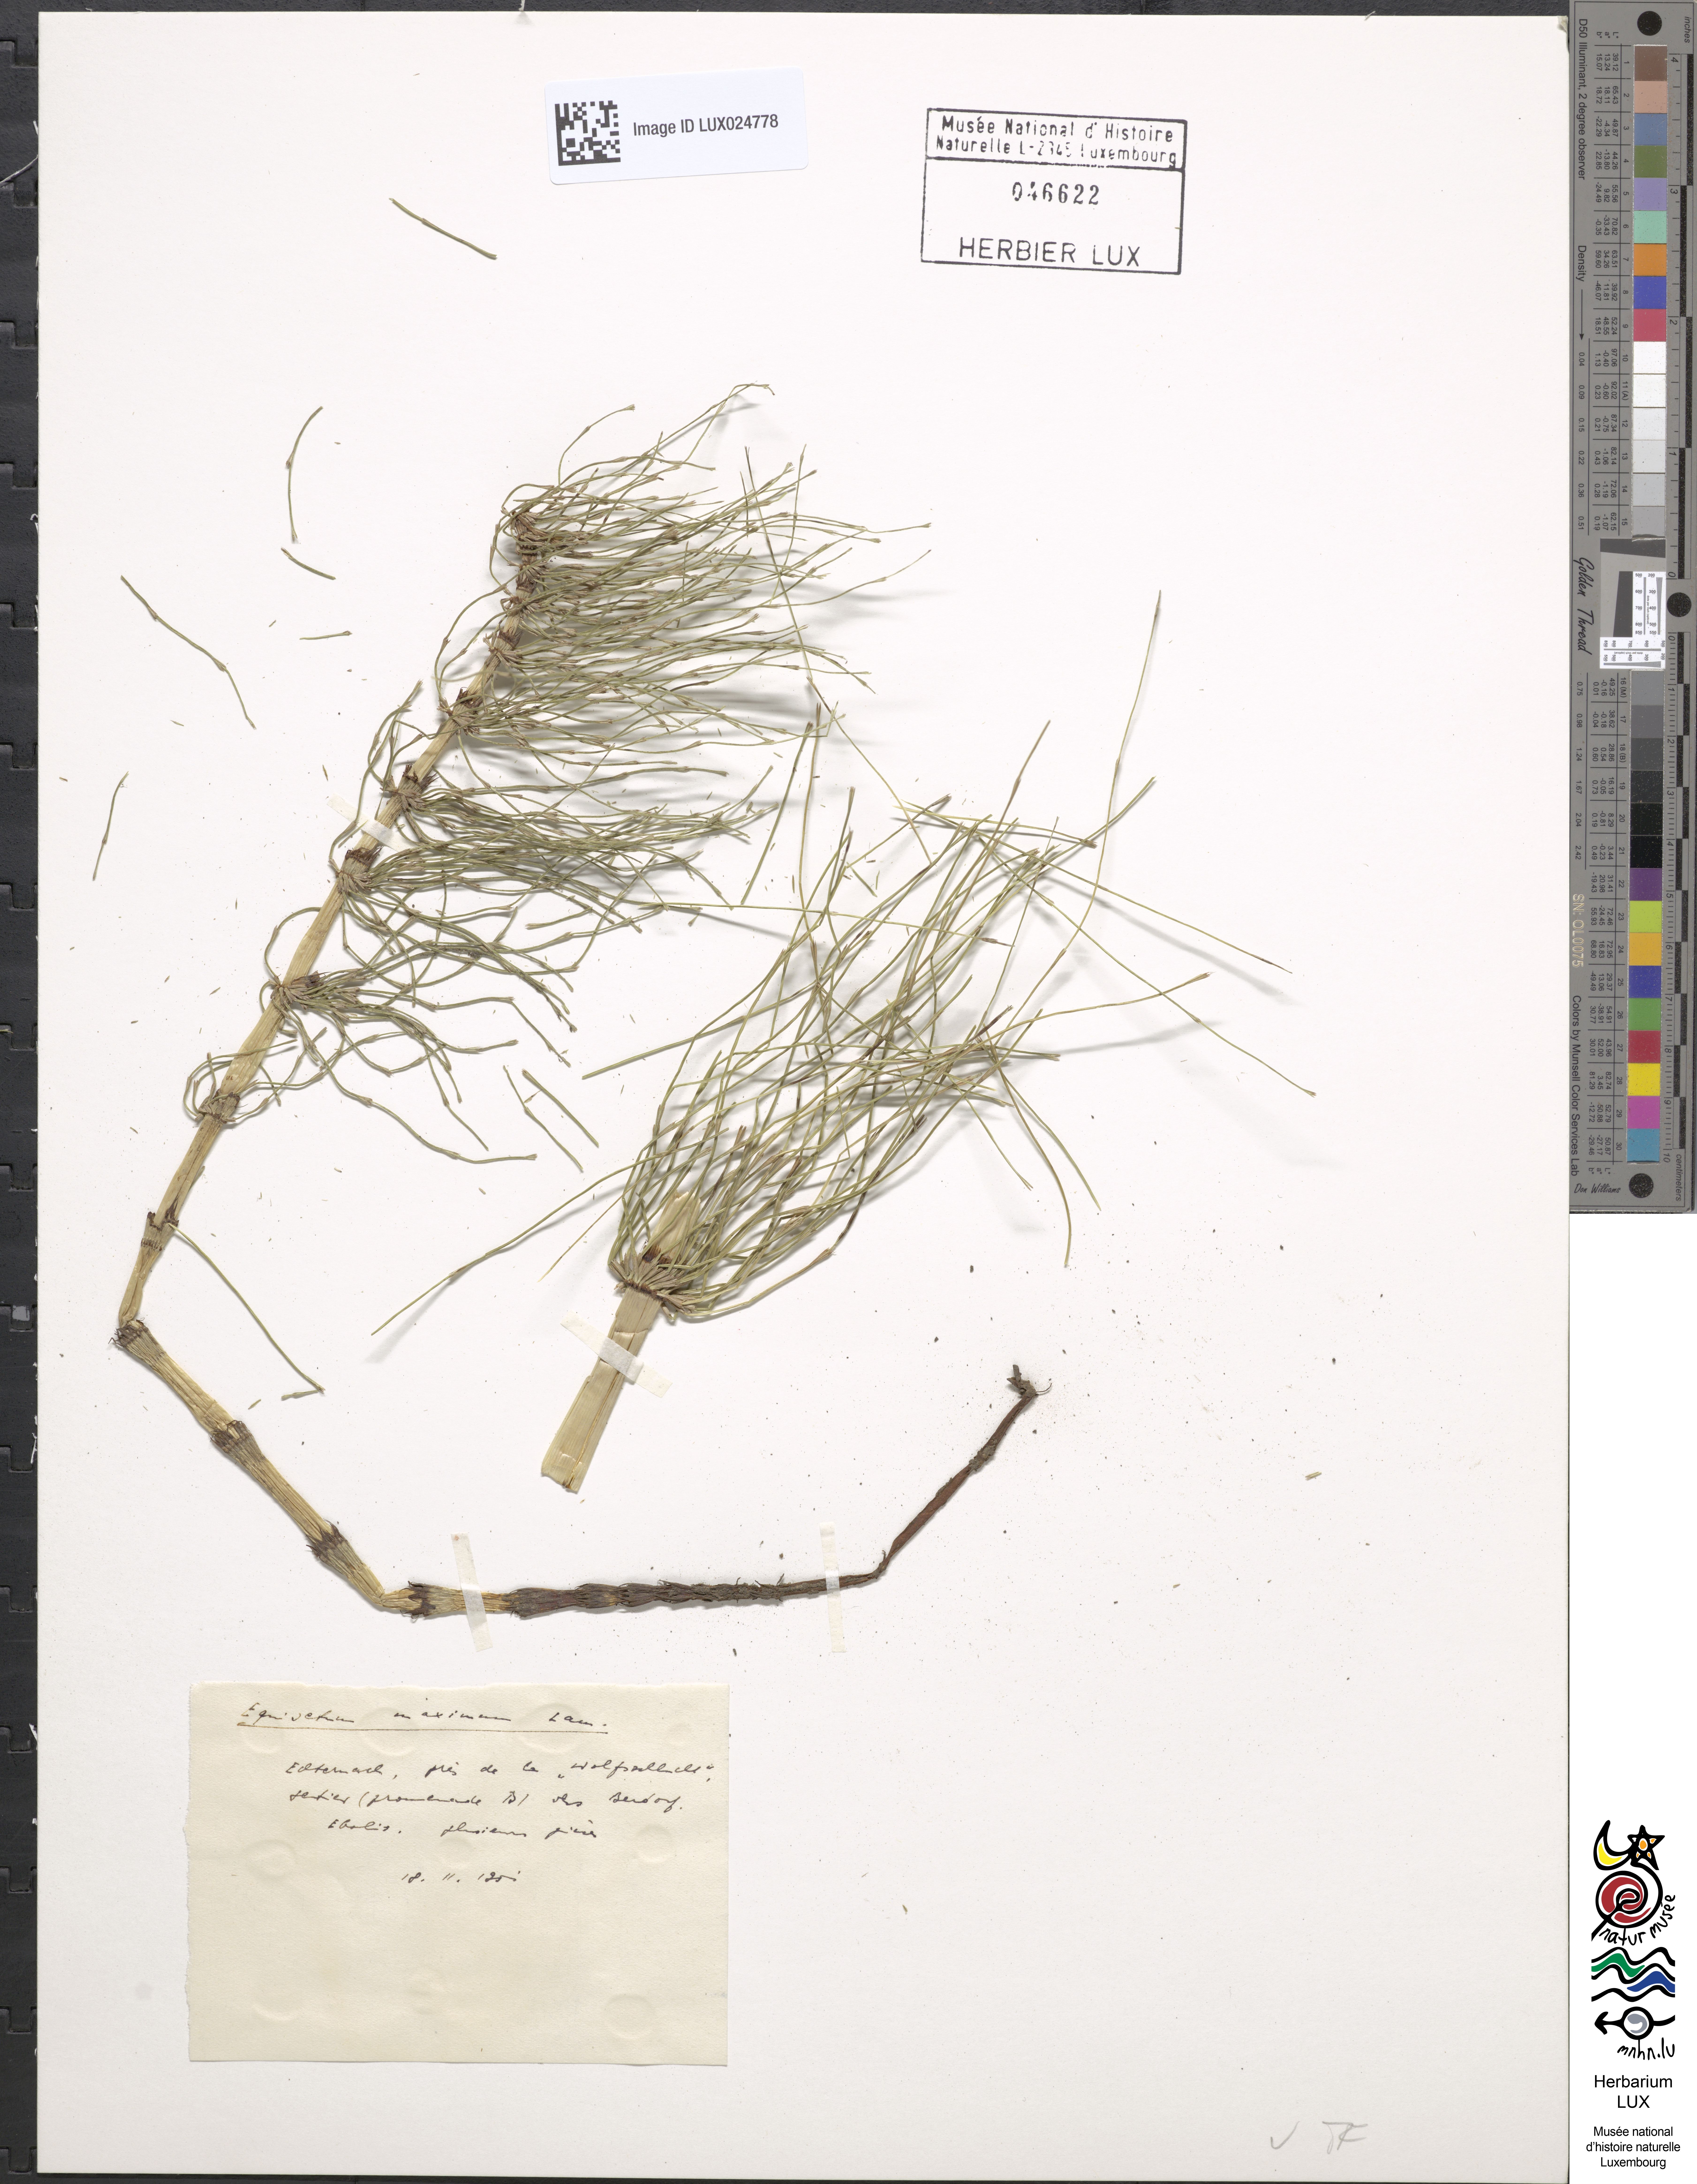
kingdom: Plantae
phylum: Tracheophyta
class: Polypodiopsida
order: Equisetales
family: Equisetaceae
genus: Equisetum
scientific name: Equisetum telmateia
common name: Great horsetail
